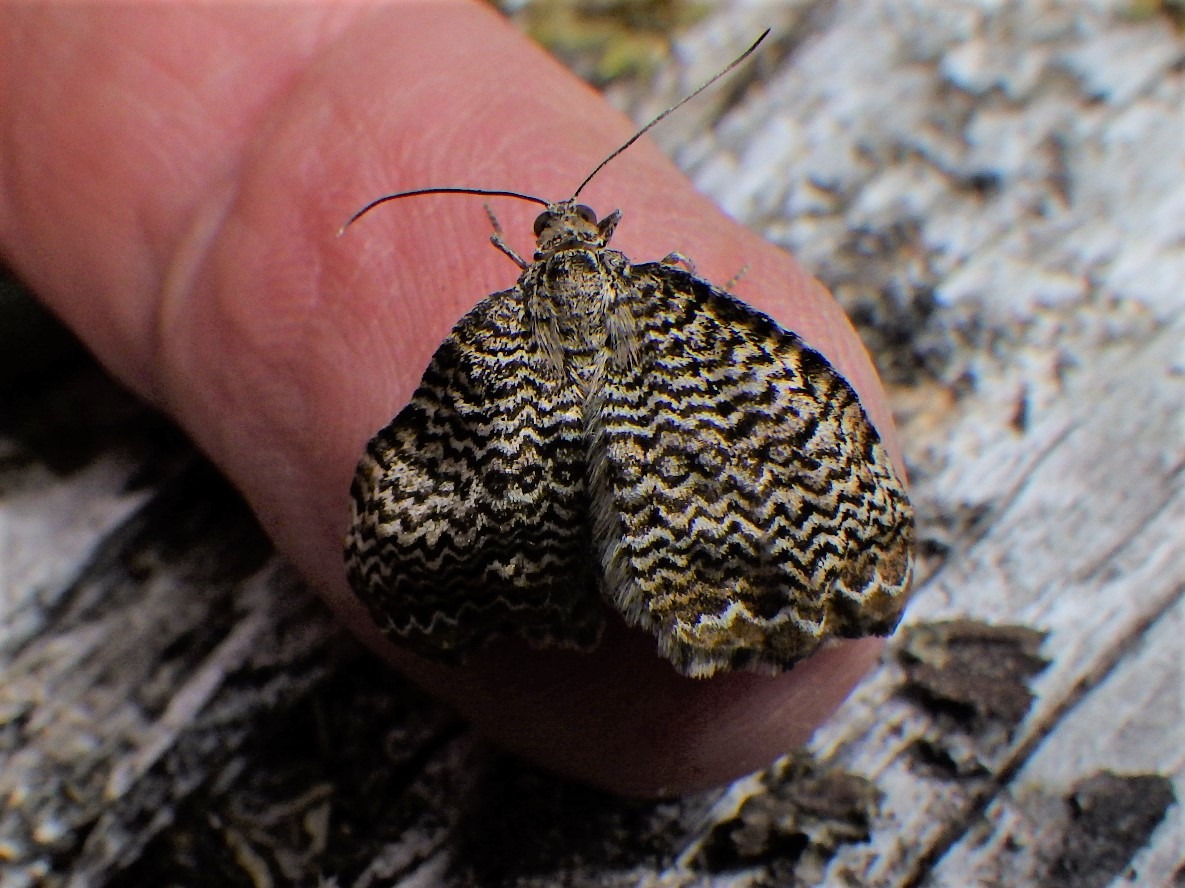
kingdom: Animalia
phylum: Arthropoda
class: Insecta
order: Lepidoptera
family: Geometridae
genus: Rheumaptera
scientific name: Rheumaptera undulata
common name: Bølget måler
